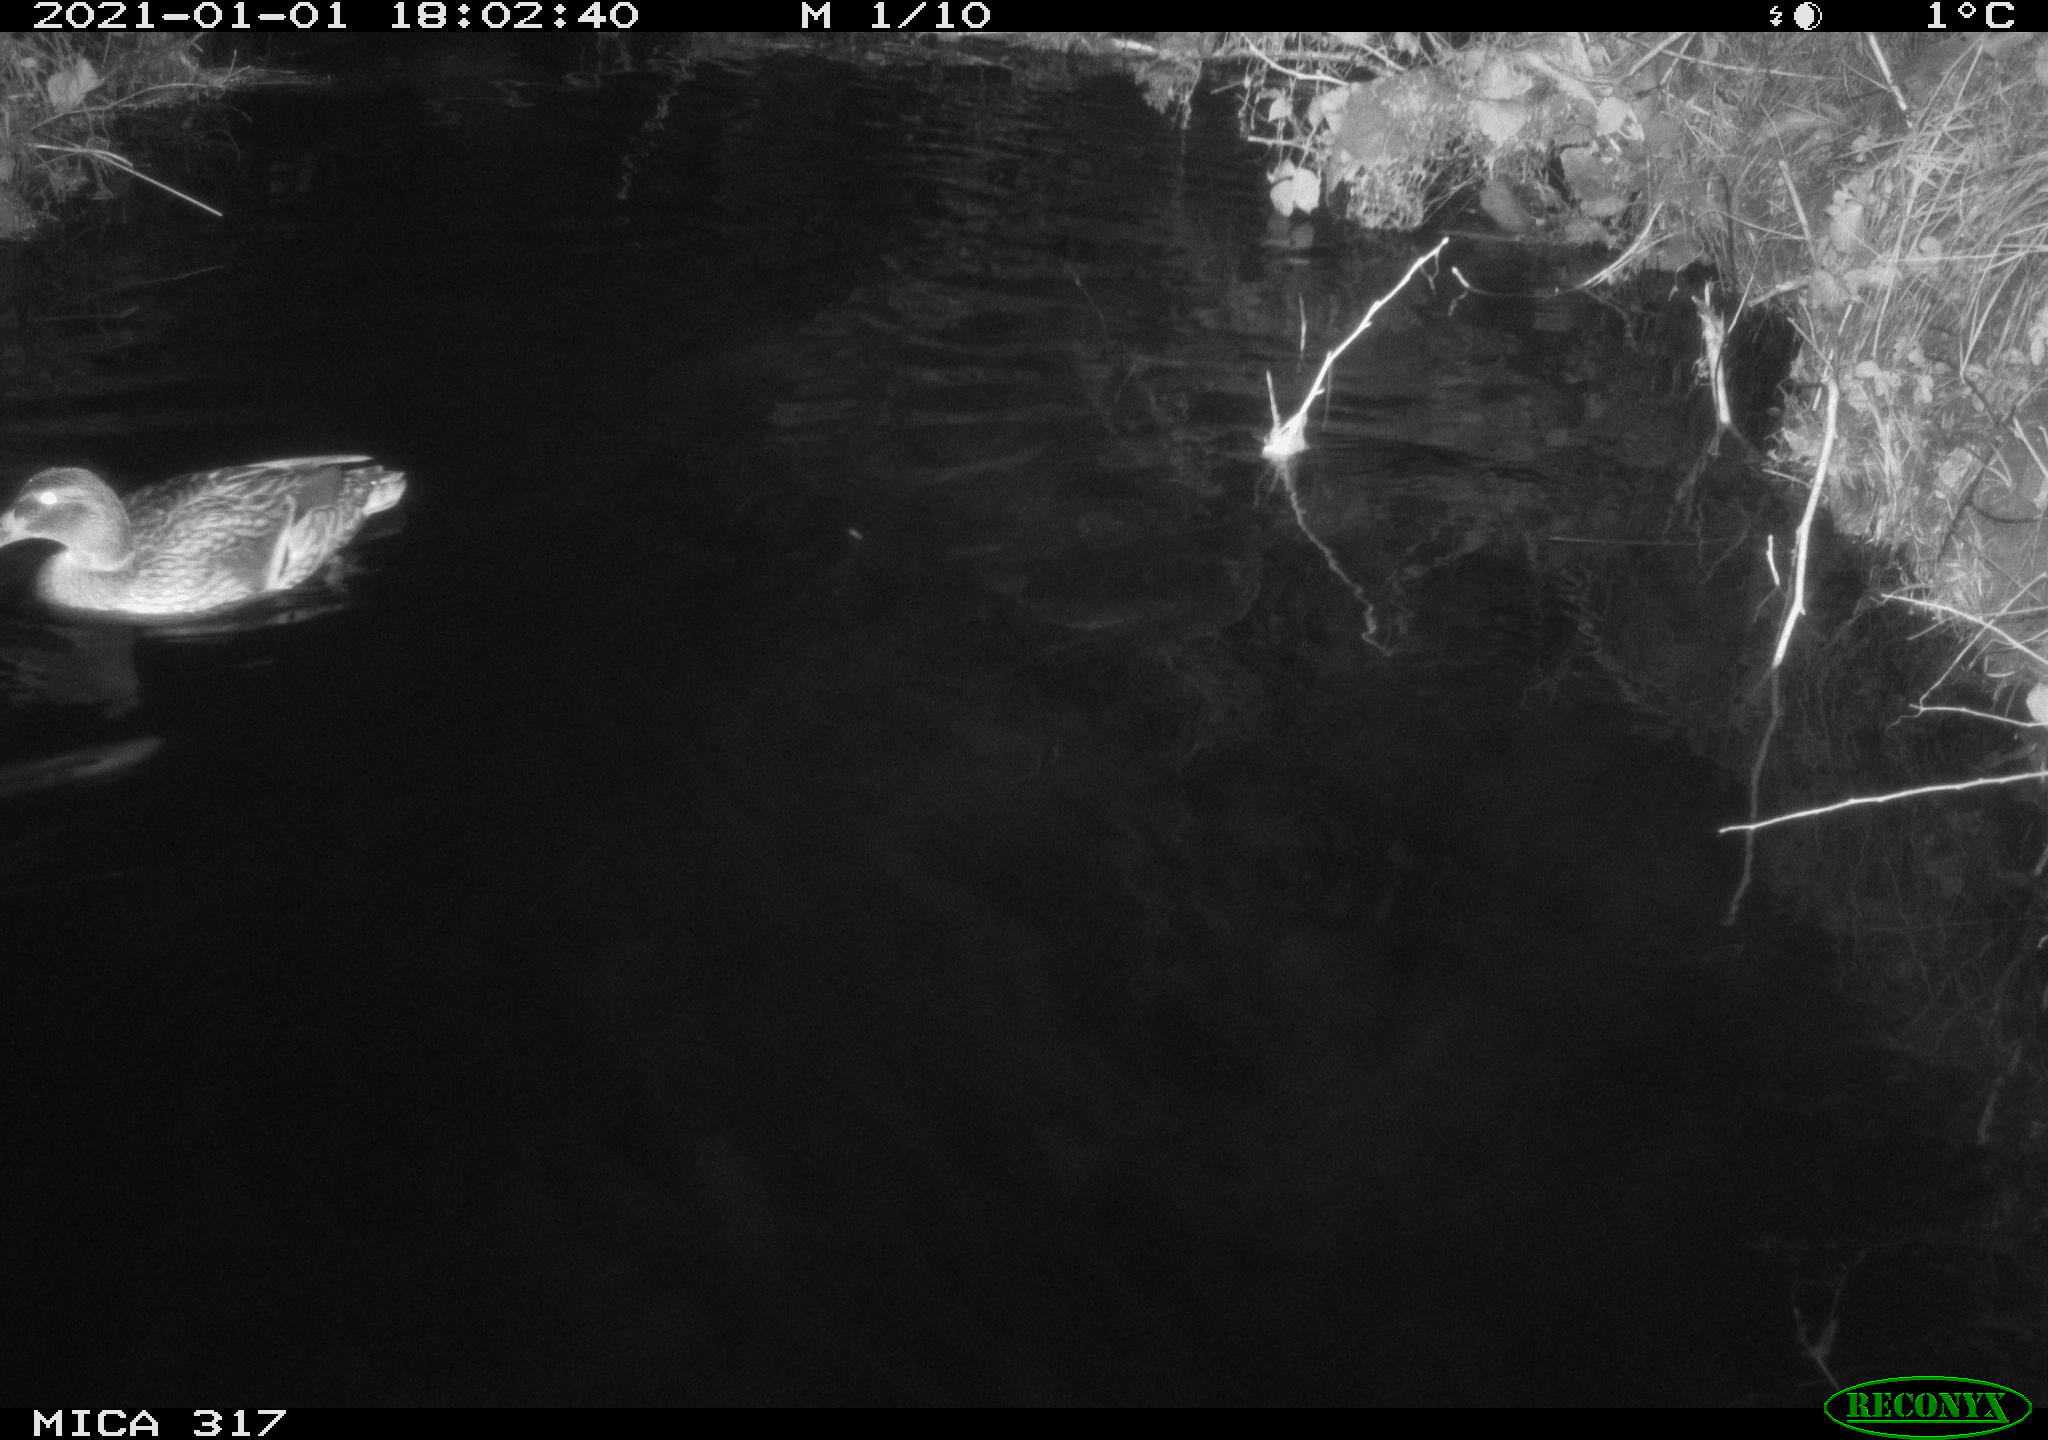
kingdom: Animalia
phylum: Chordata
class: Aves
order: Anseriformes
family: Anatidae
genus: Anas
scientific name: Anas platyrhynchos
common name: Mallard
